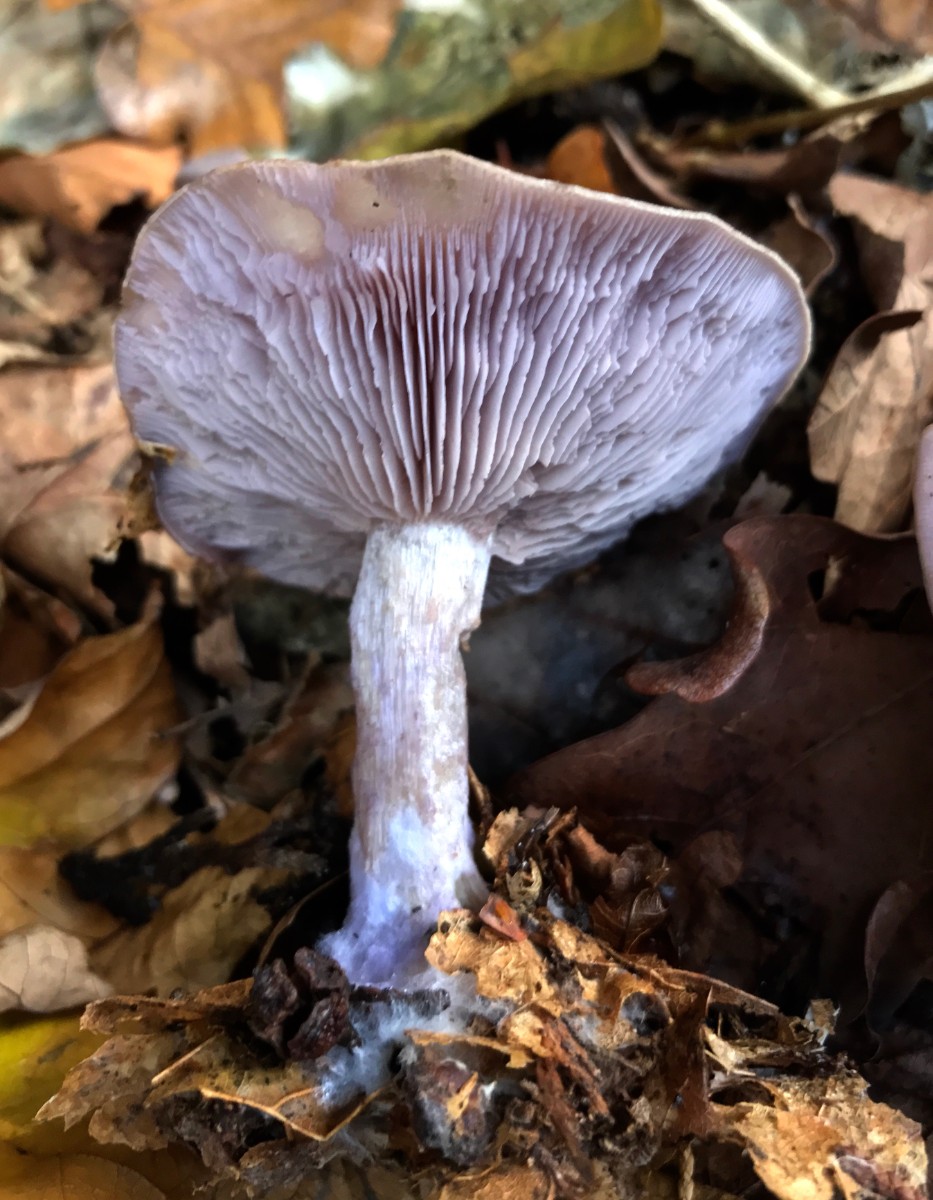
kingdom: Fungi
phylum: Basidiomycota
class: Agaricomycetes
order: Agaricales
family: Tricholomataceae
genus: Lepista
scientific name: Lepista nuda
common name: violet hekseringshat
